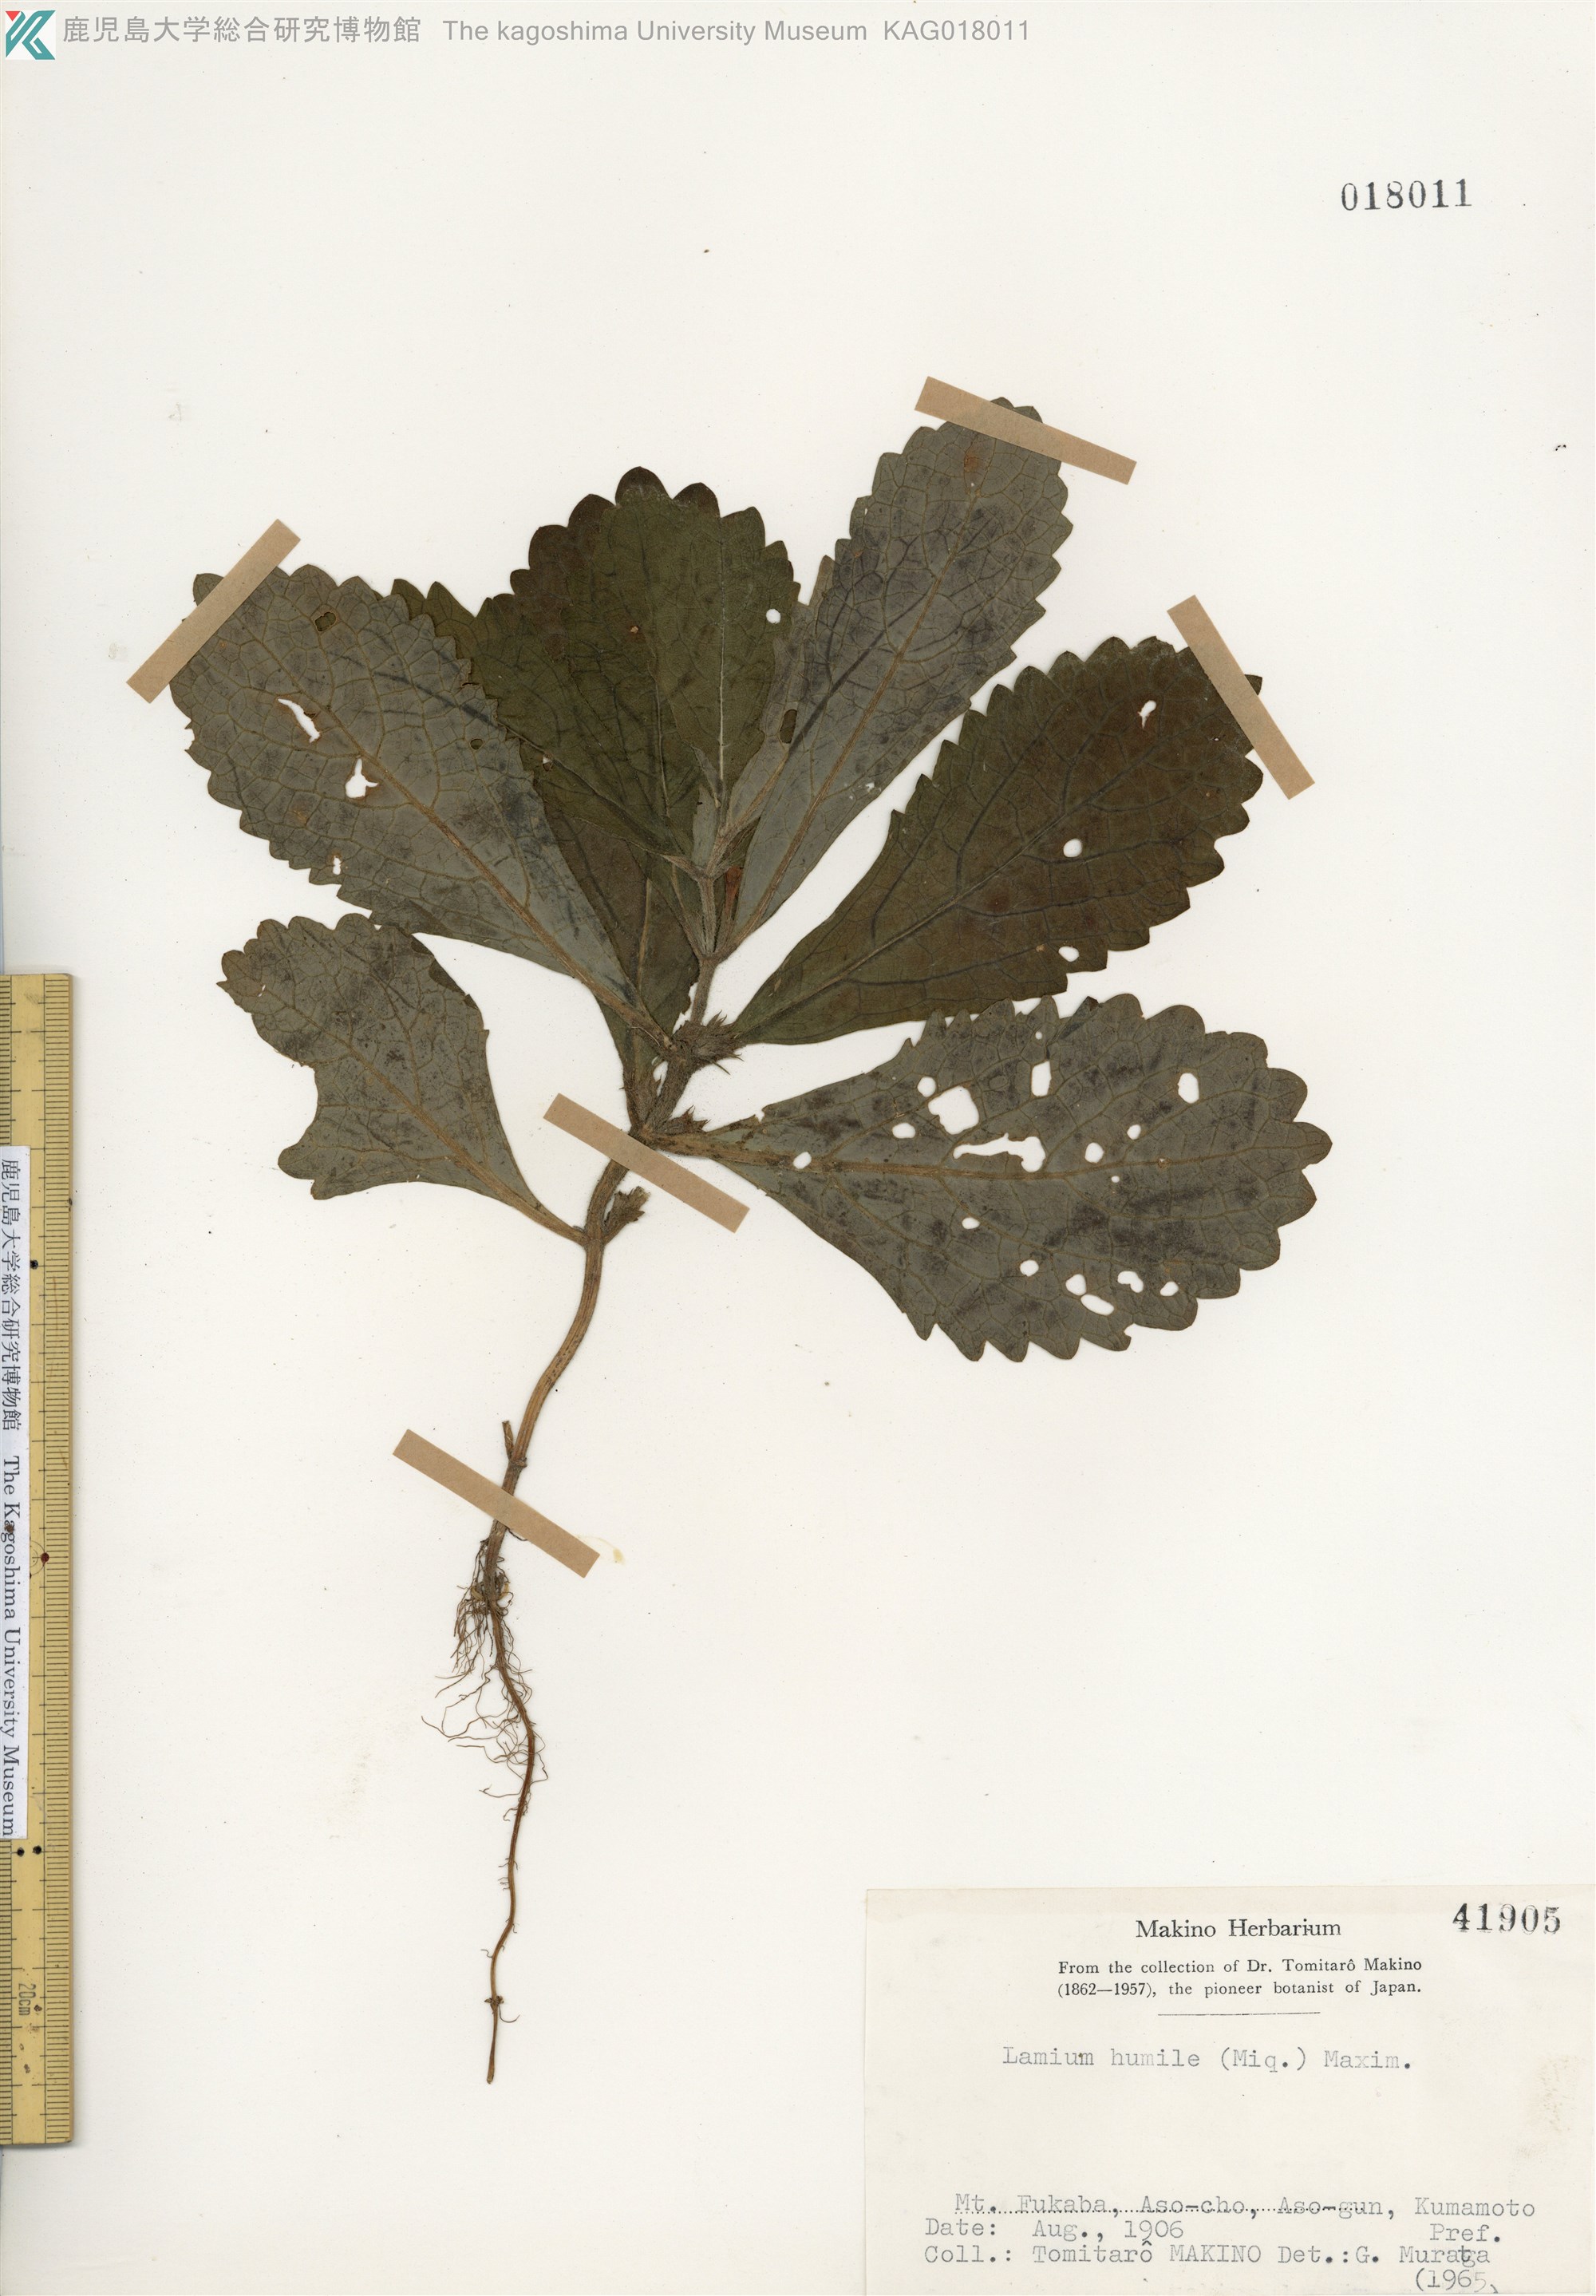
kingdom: Plantae
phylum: Tracheophyta
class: Magnoliopsida
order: Lamiales
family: Lamiaceae
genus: Ajugoides
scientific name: Ajugoides humilis
